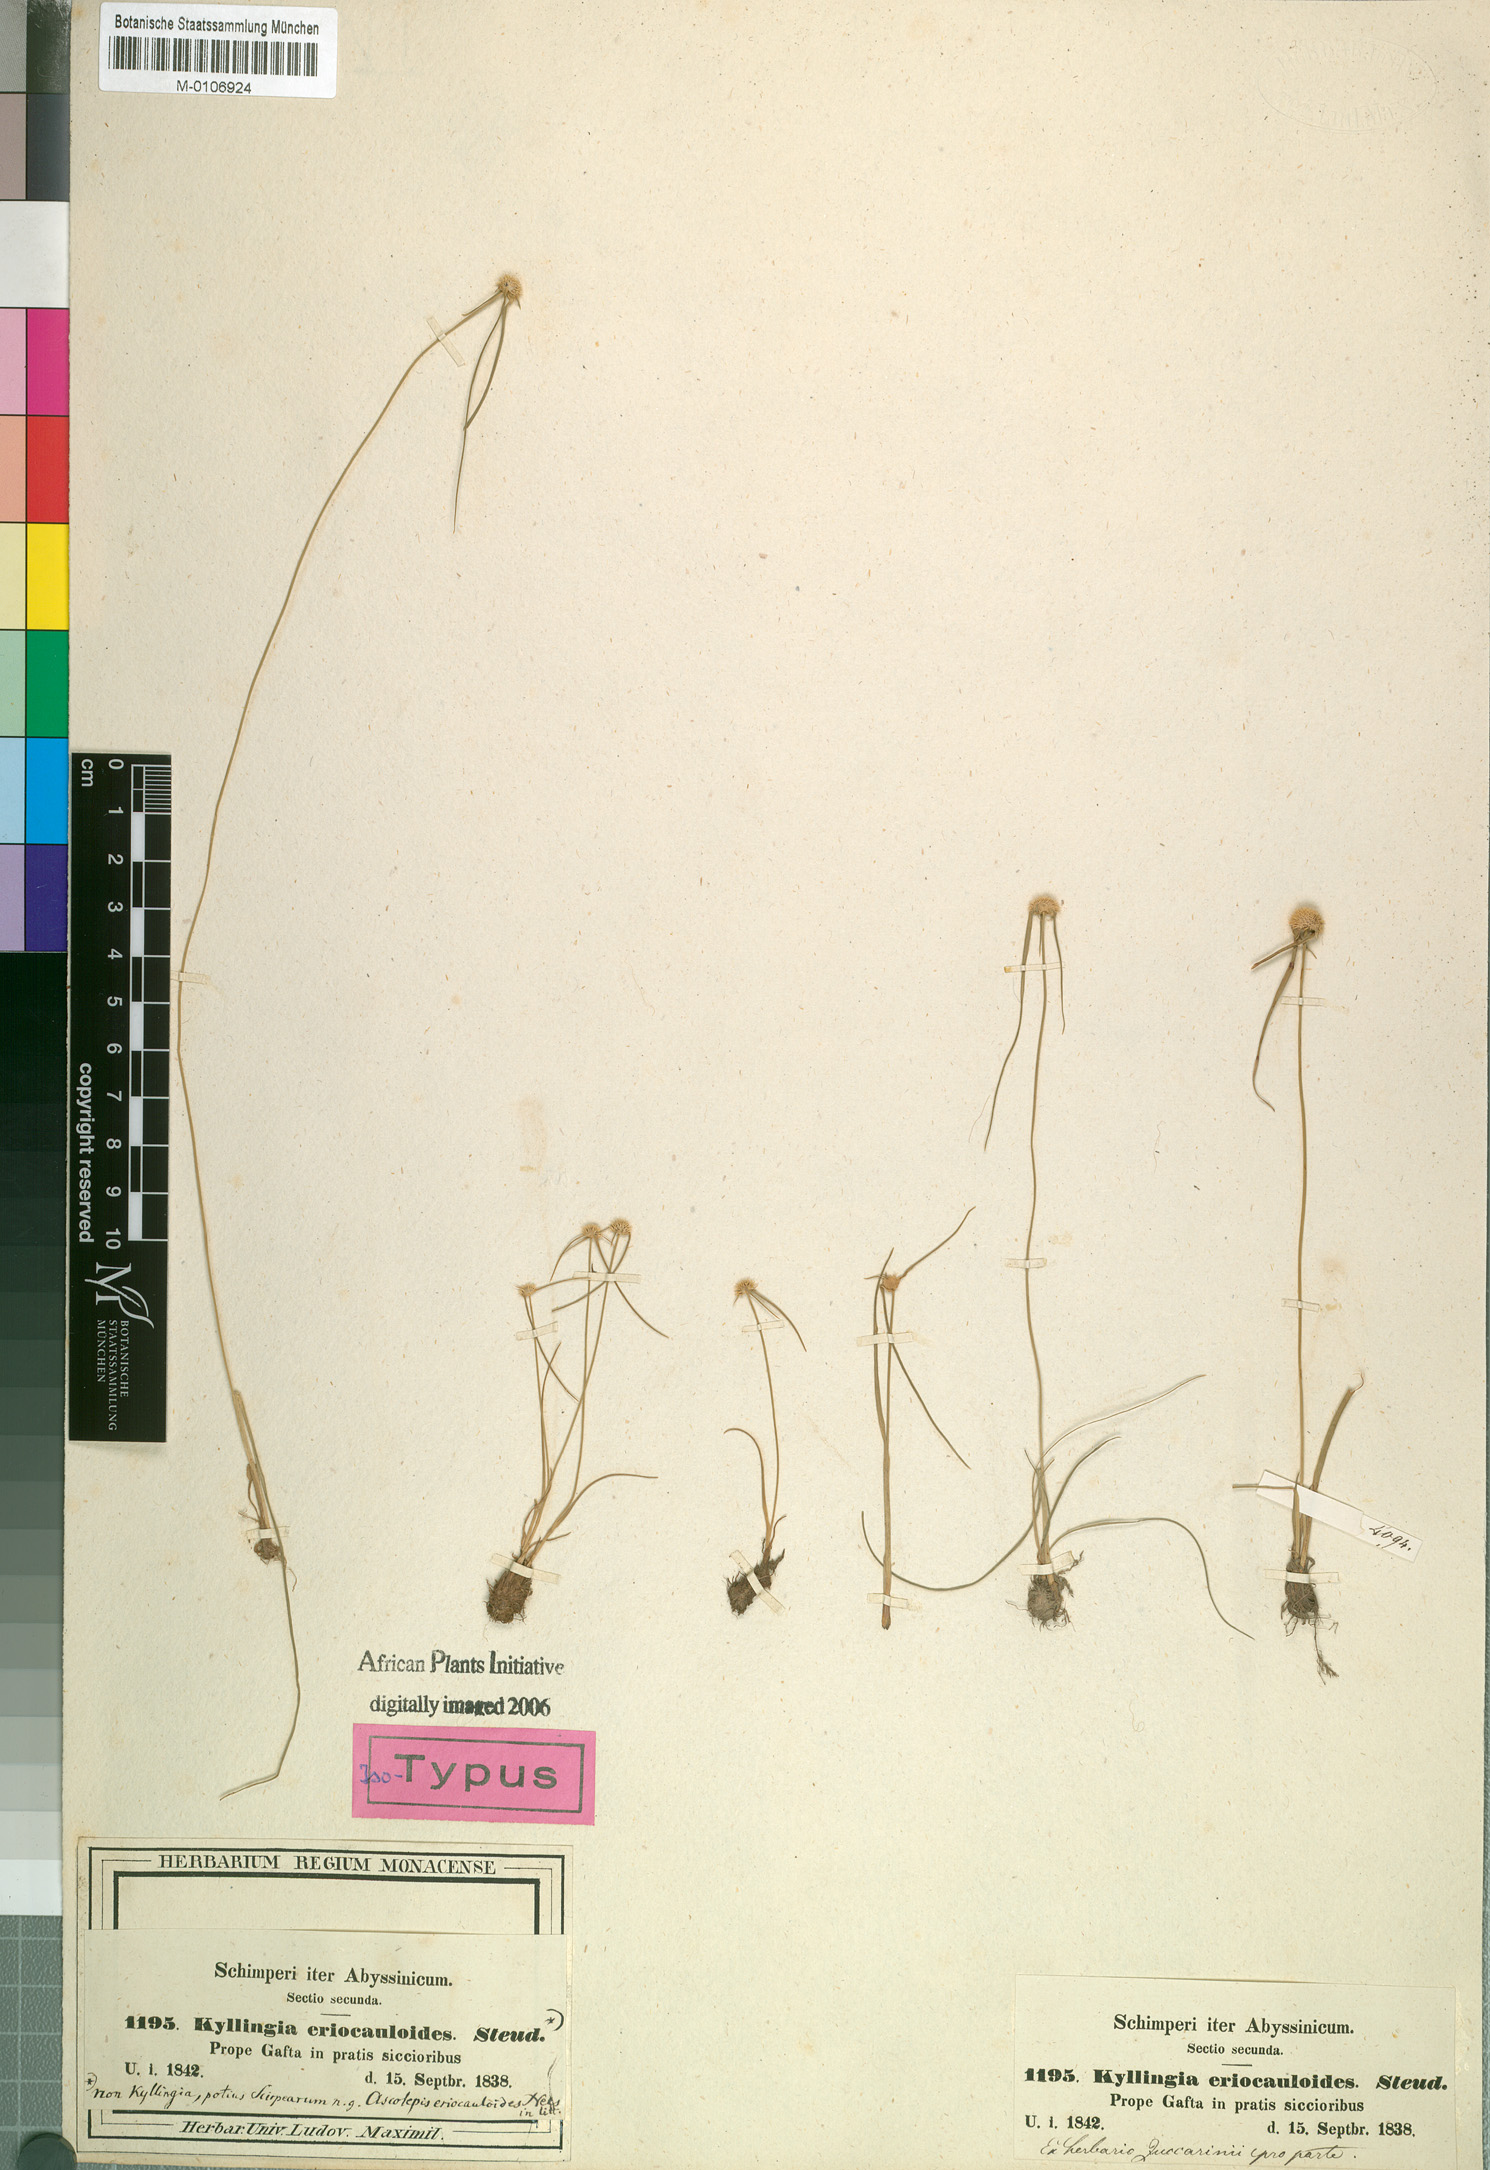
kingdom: Plantae
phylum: Tracheophyta
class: Liliopsida
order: Poales
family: Cyperaceae
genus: Cyperus
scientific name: Cyperus eriocauloides
